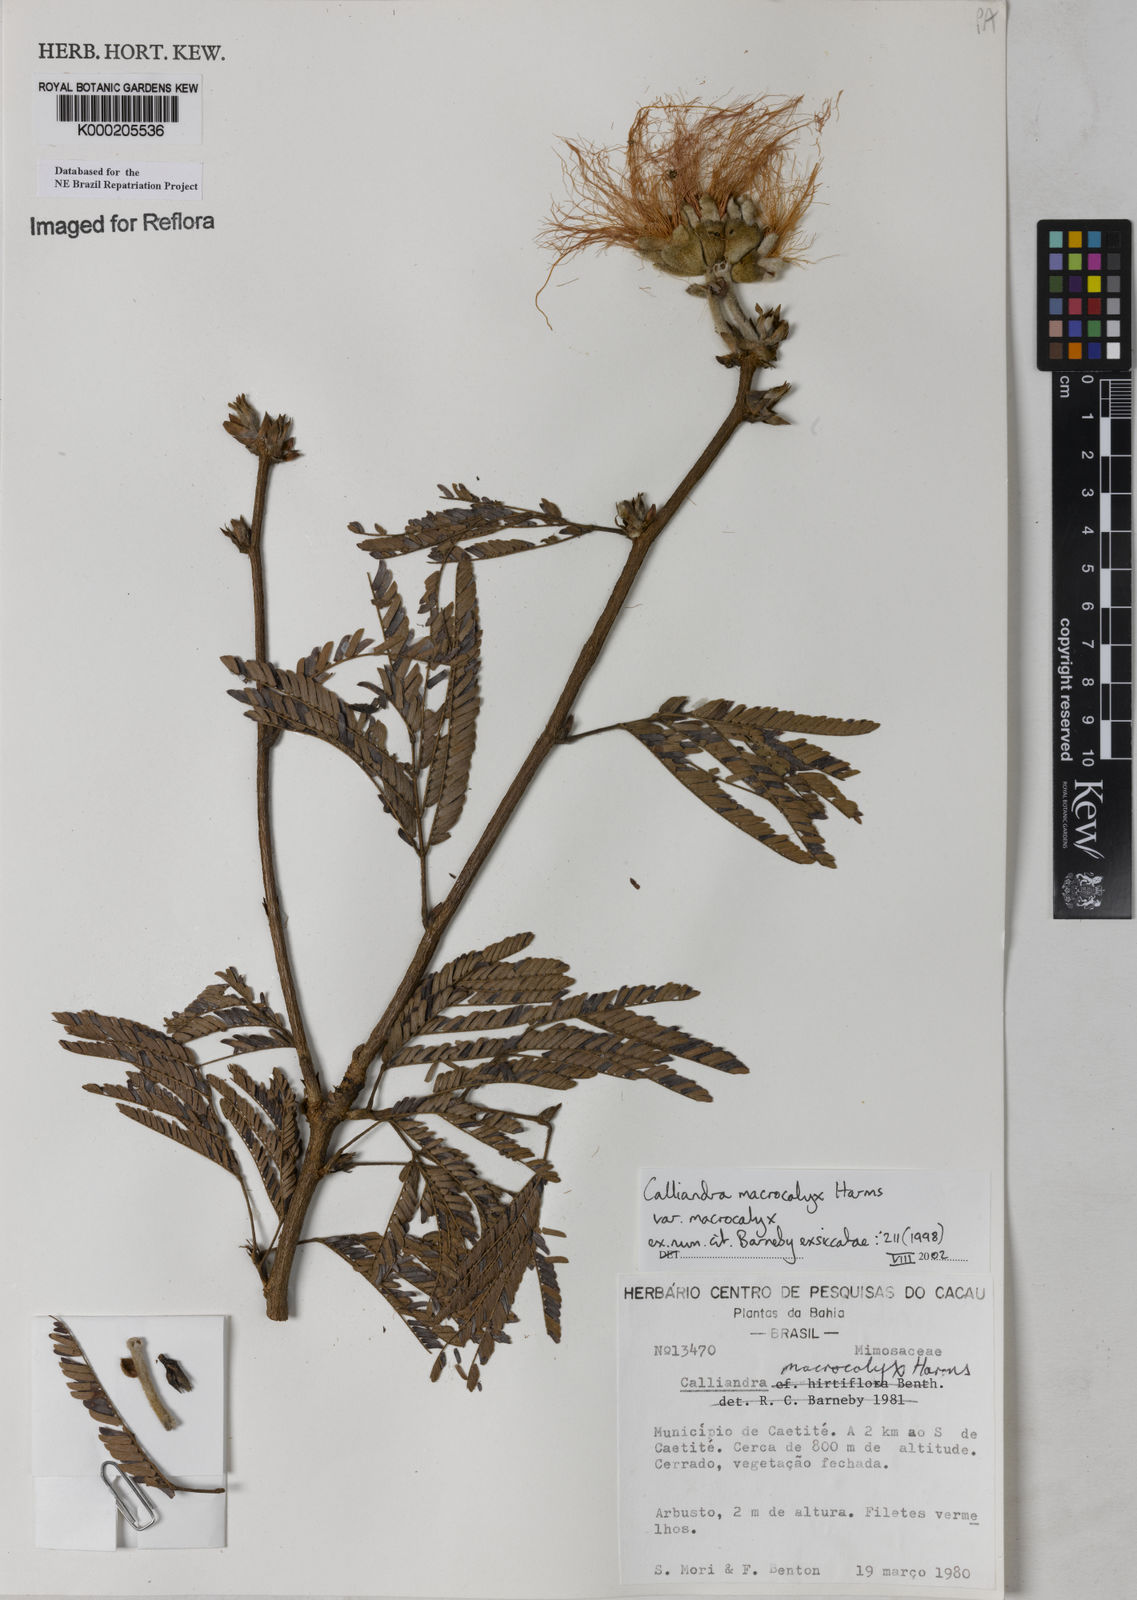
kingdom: Plantae
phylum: Tracheophyta
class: Magnoliopsida
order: Fabales
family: Fabaceae
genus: Calliandra
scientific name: Calliandra macrocalyx
